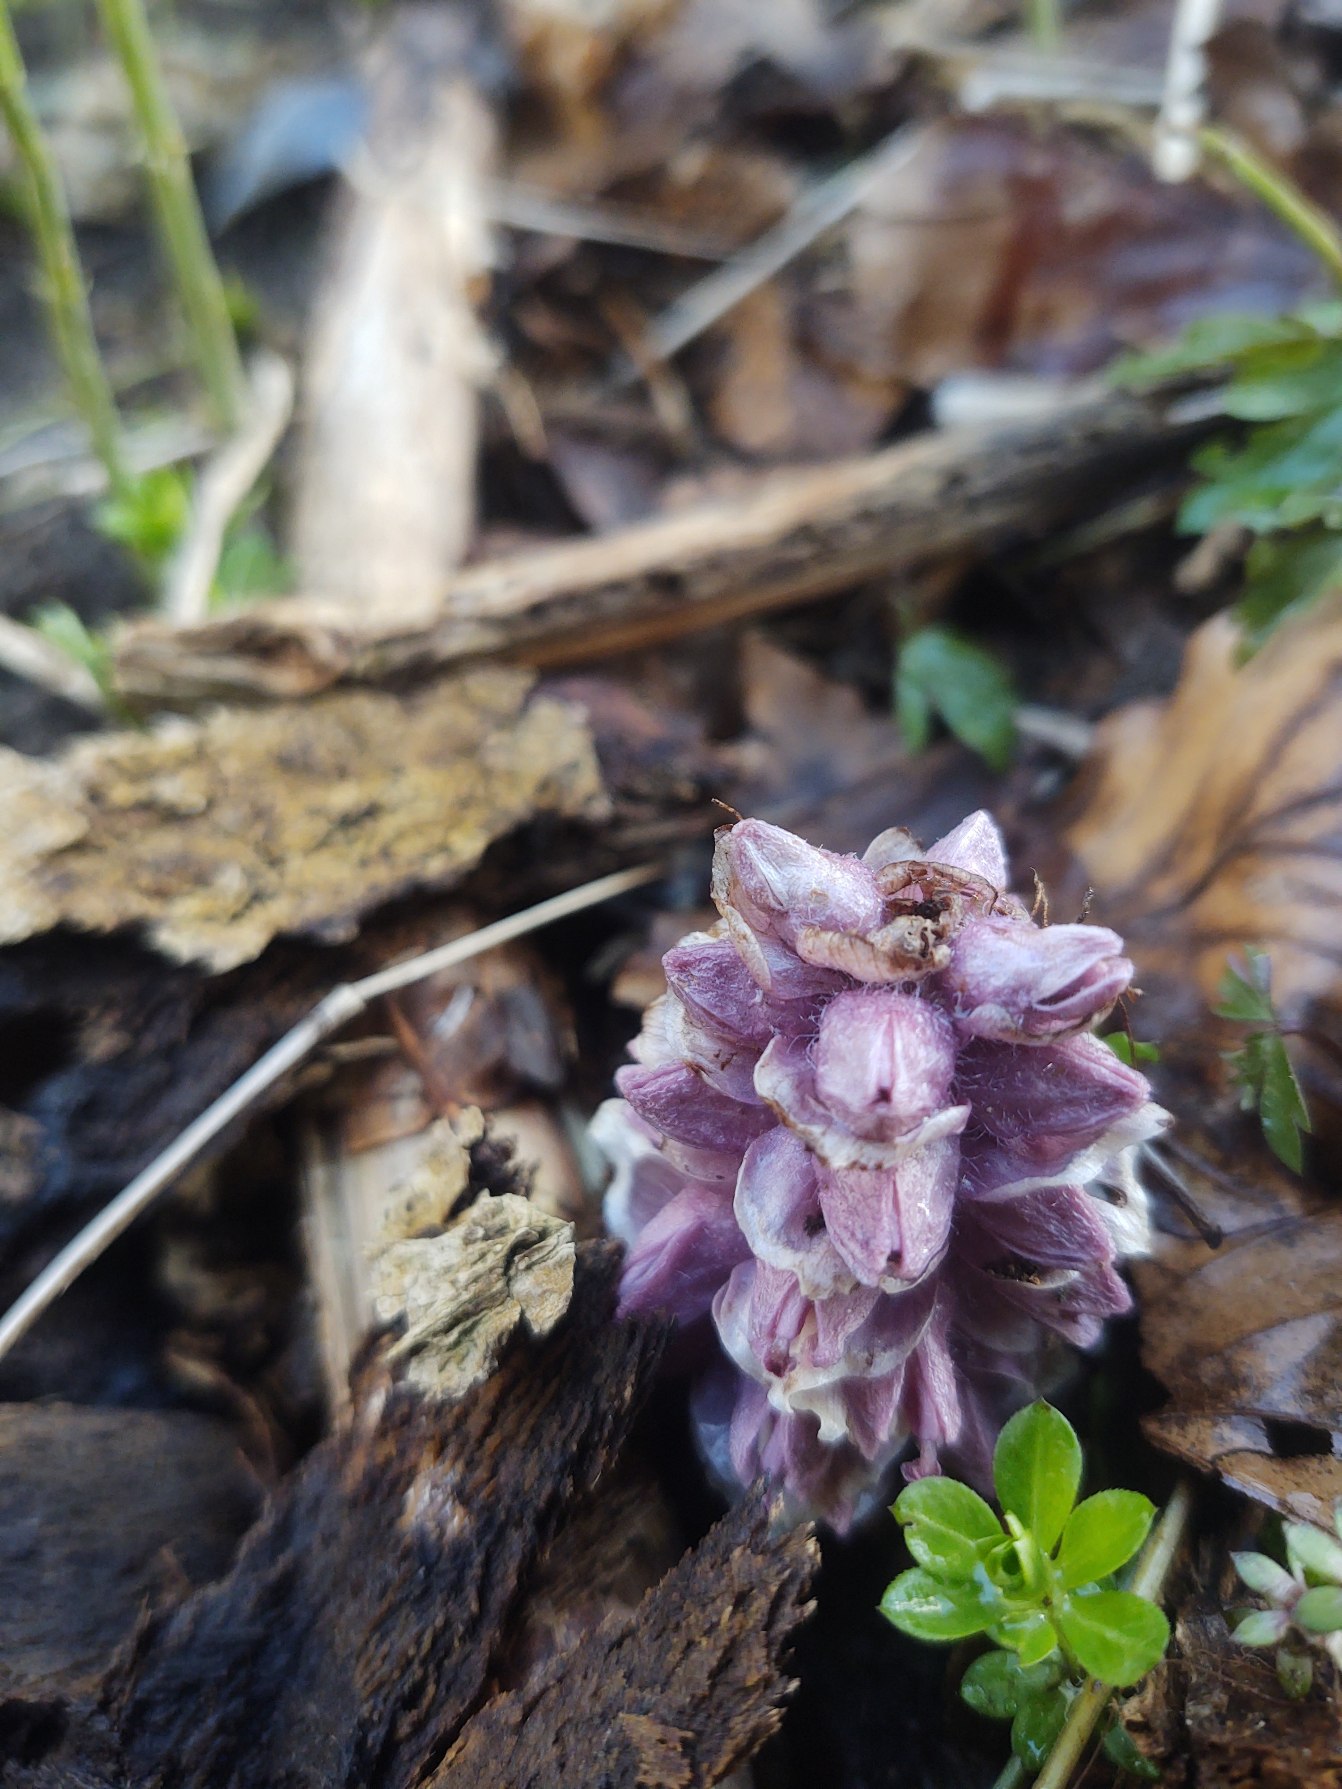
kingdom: Plantae
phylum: Tracheophyta
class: Magnoliopsida
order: Lamiales
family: Orobanchaceae
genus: Lathraea
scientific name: Lathraea squamaria
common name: Skælrod
